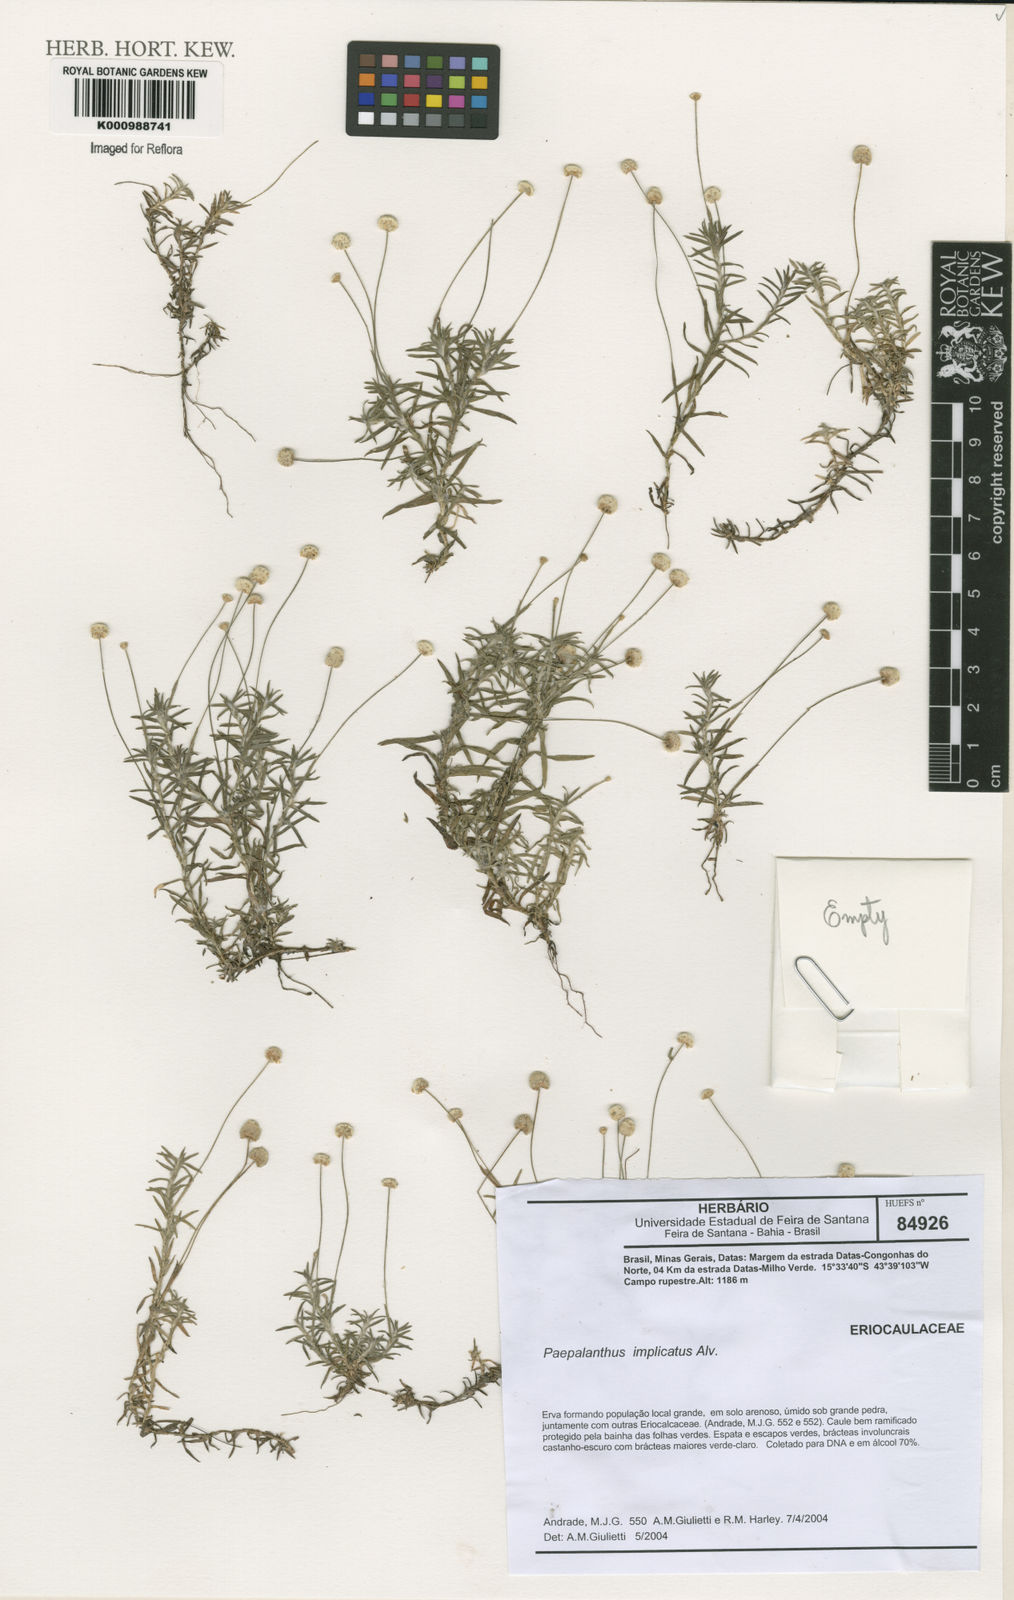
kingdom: Plantae
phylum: Tracheophyta
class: Liliopsida
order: Poales
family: Eriocaulaceae
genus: Paepalanthus
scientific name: Paepalanthus implicatus
